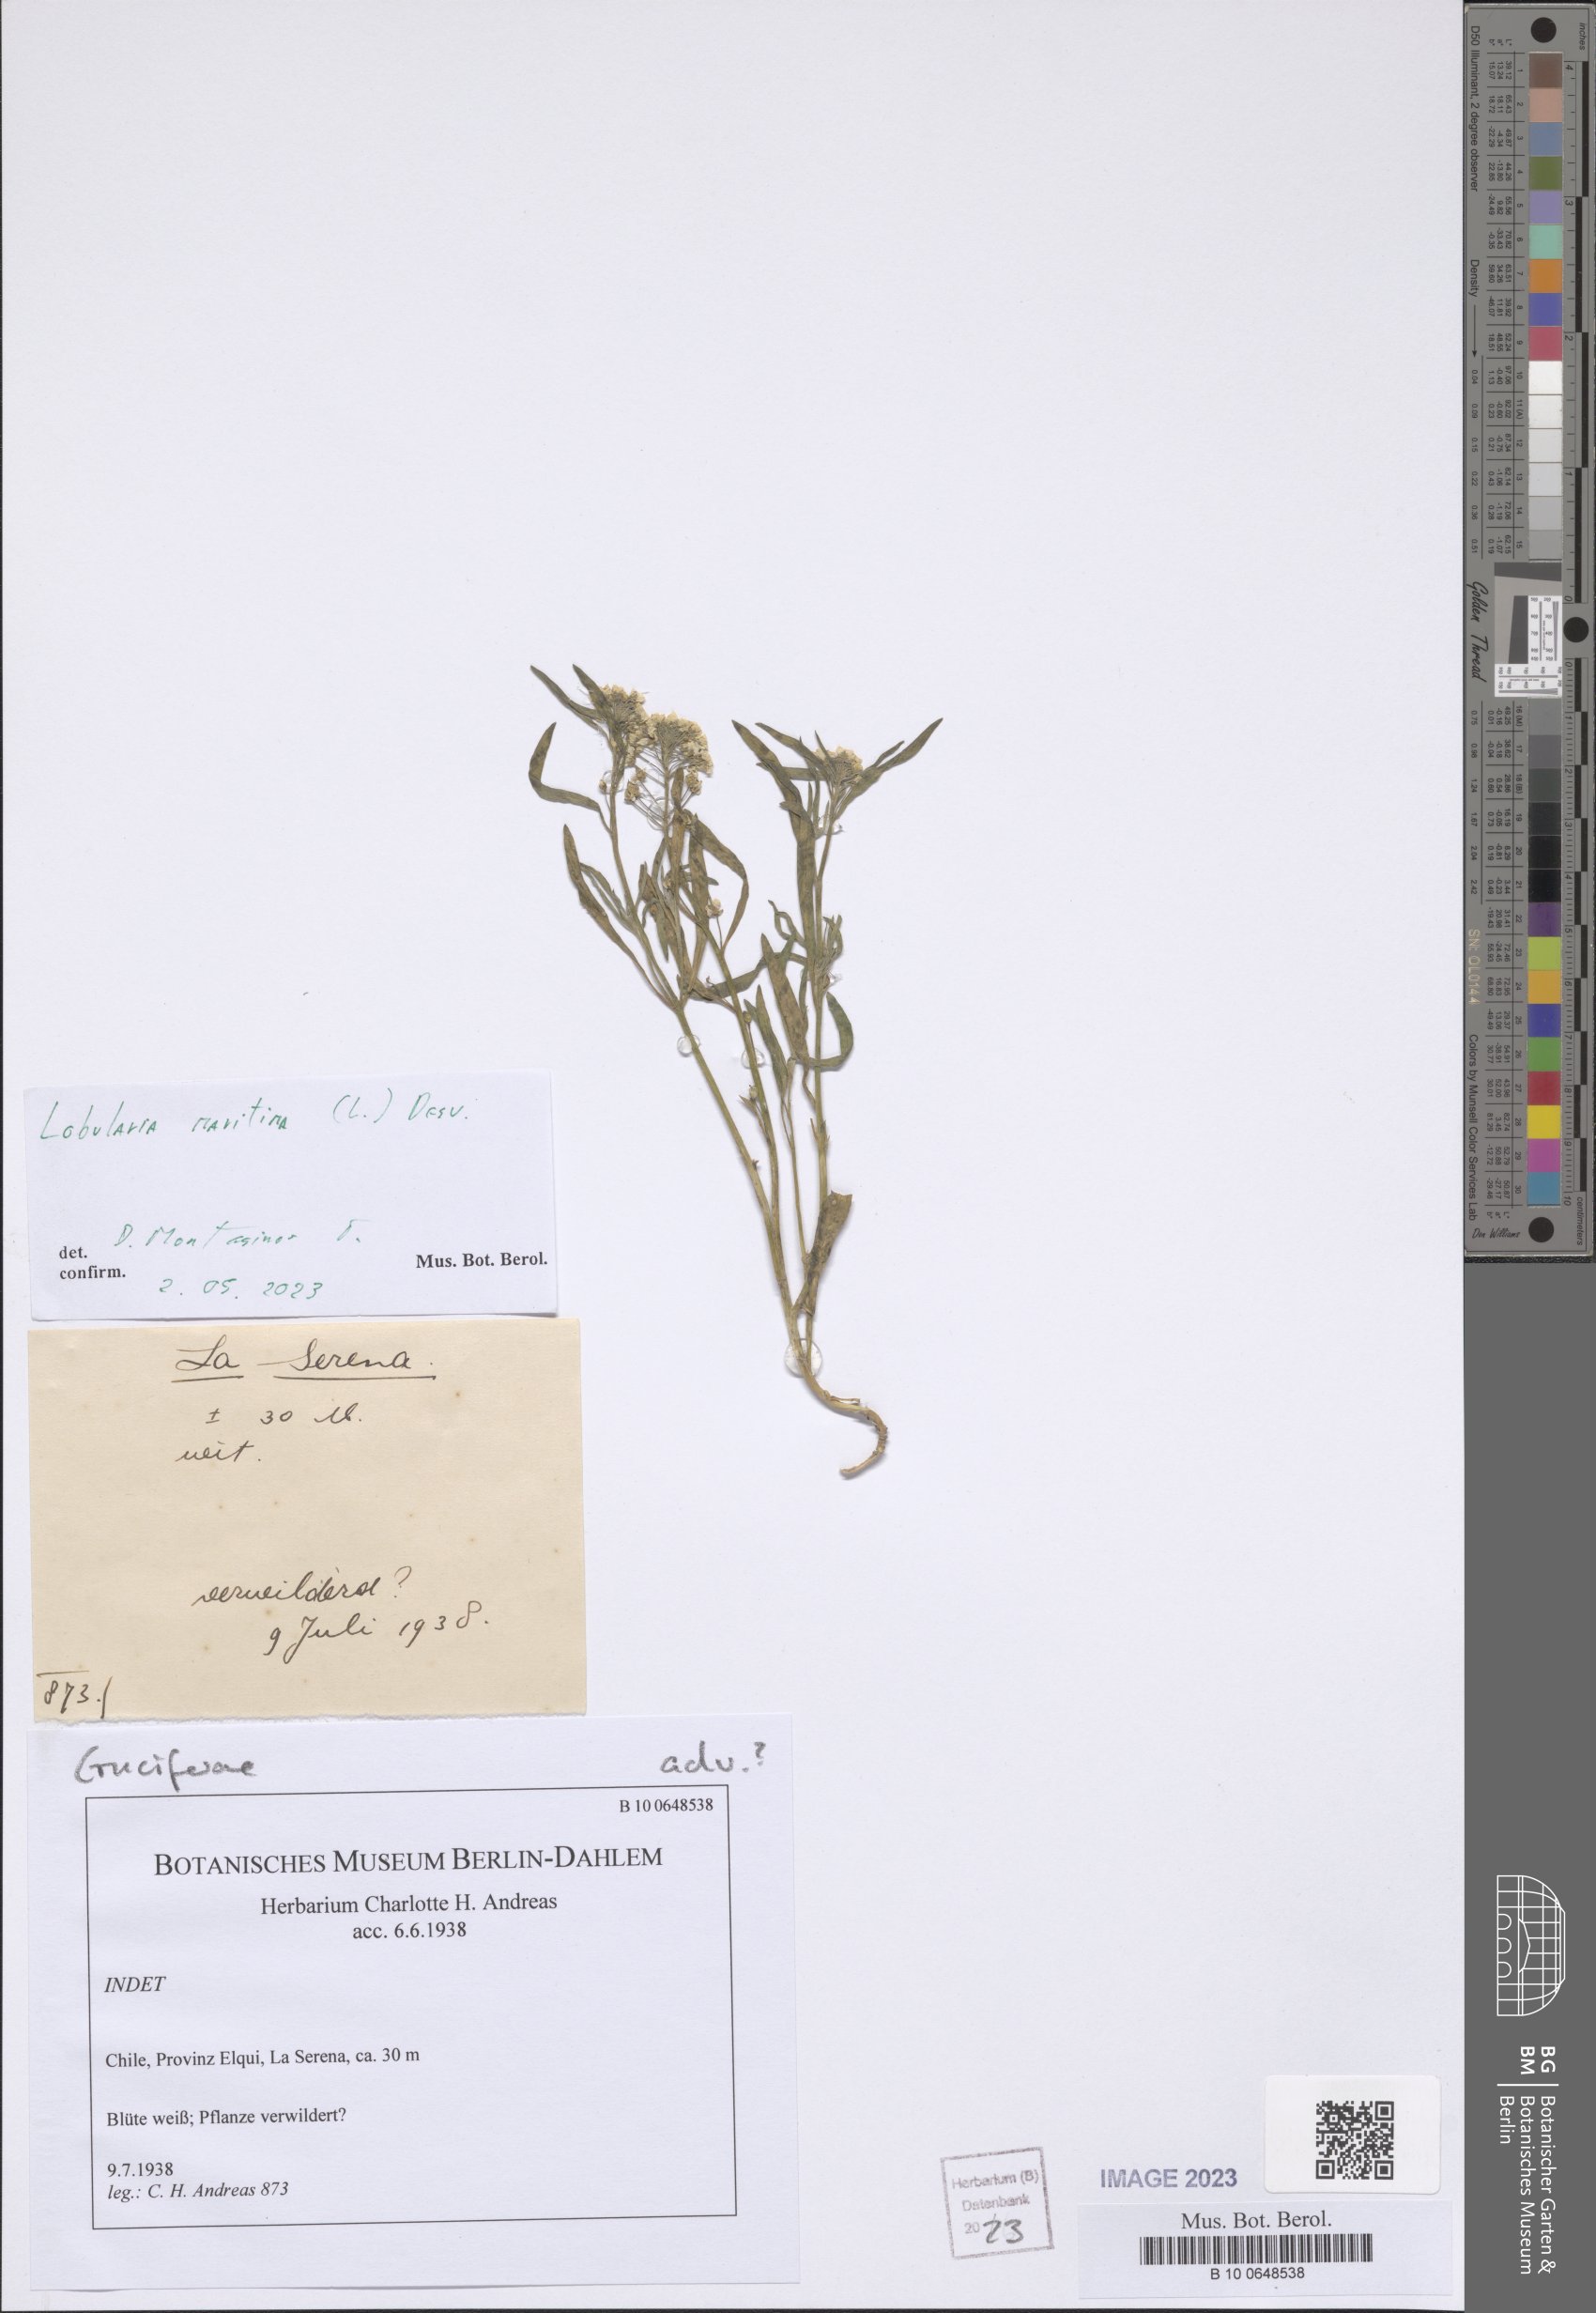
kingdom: Plantae
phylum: Tracheophyta
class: Magnoliopsida
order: Brassicales
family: Brassicaceae
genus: Lobularia
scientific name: Lobularia maritima
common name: Sweet alison
